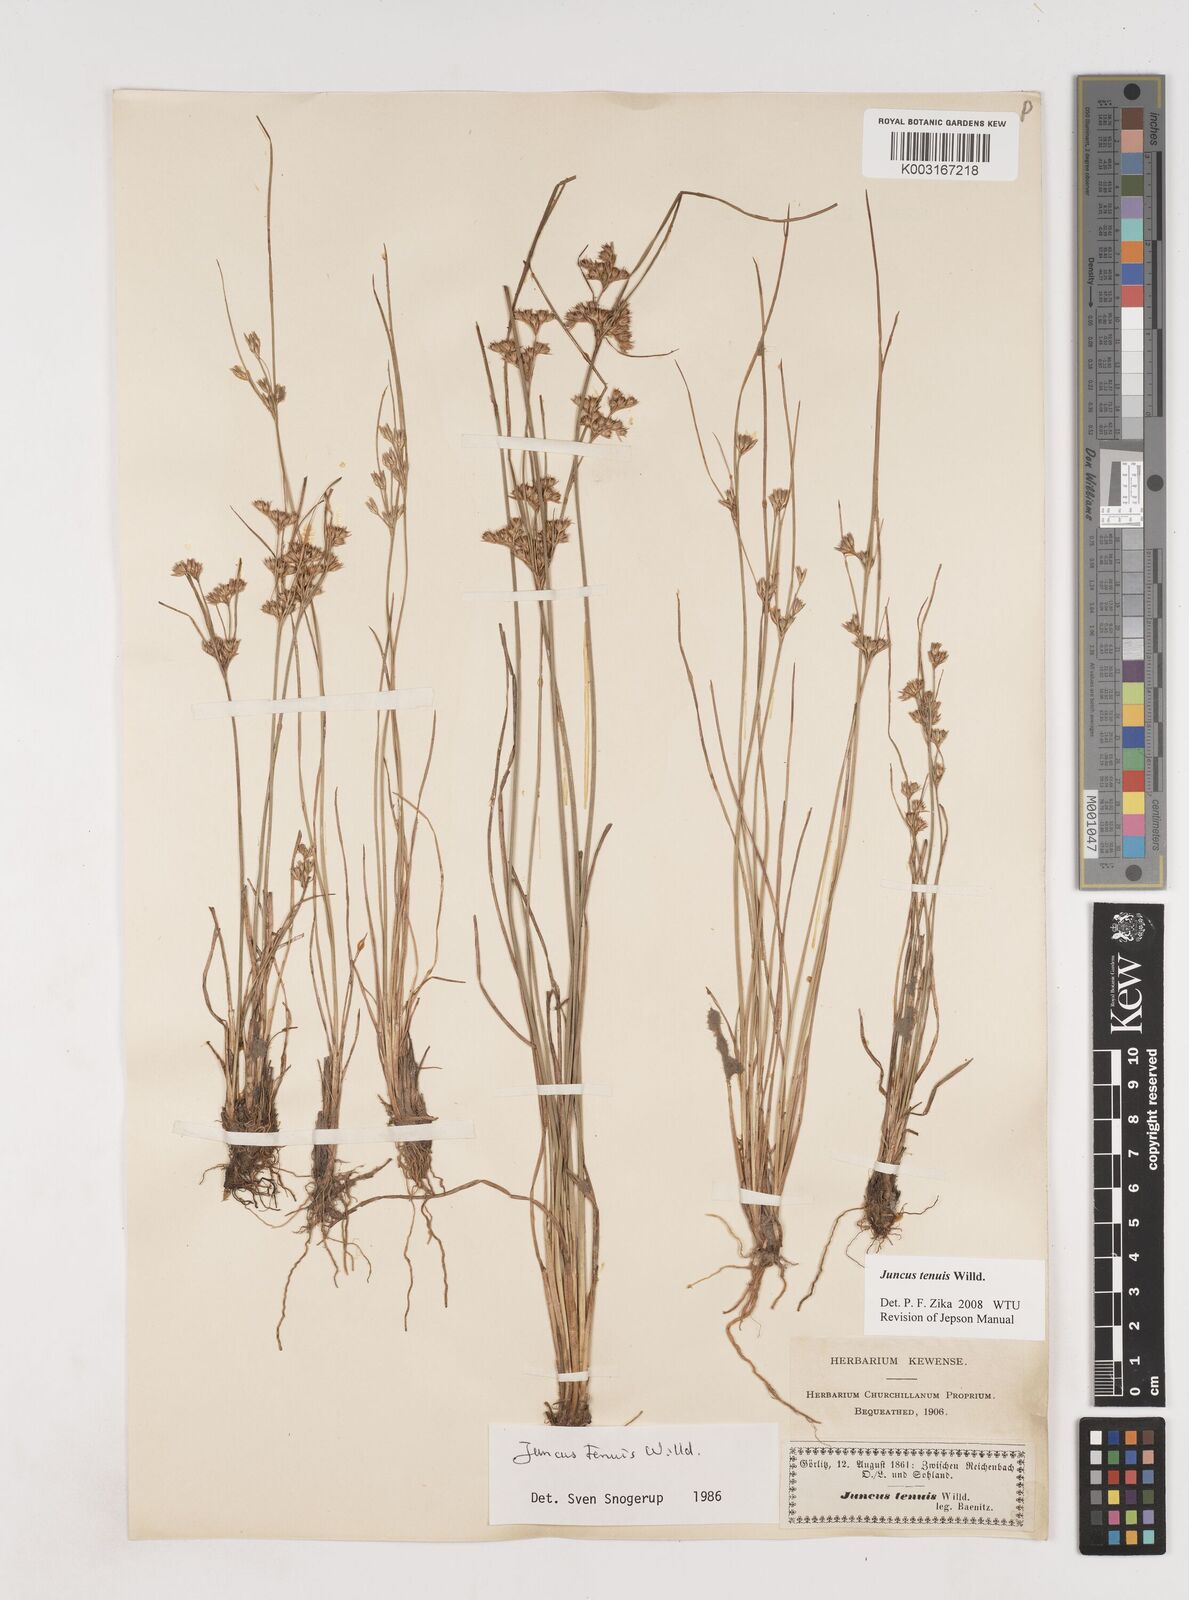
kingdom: Plantae
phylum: Tracheophyta
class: Liliopsida
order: Poales
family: Juncaceae
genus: Juncus
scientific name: Juncus tenuis
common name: Slender rush
